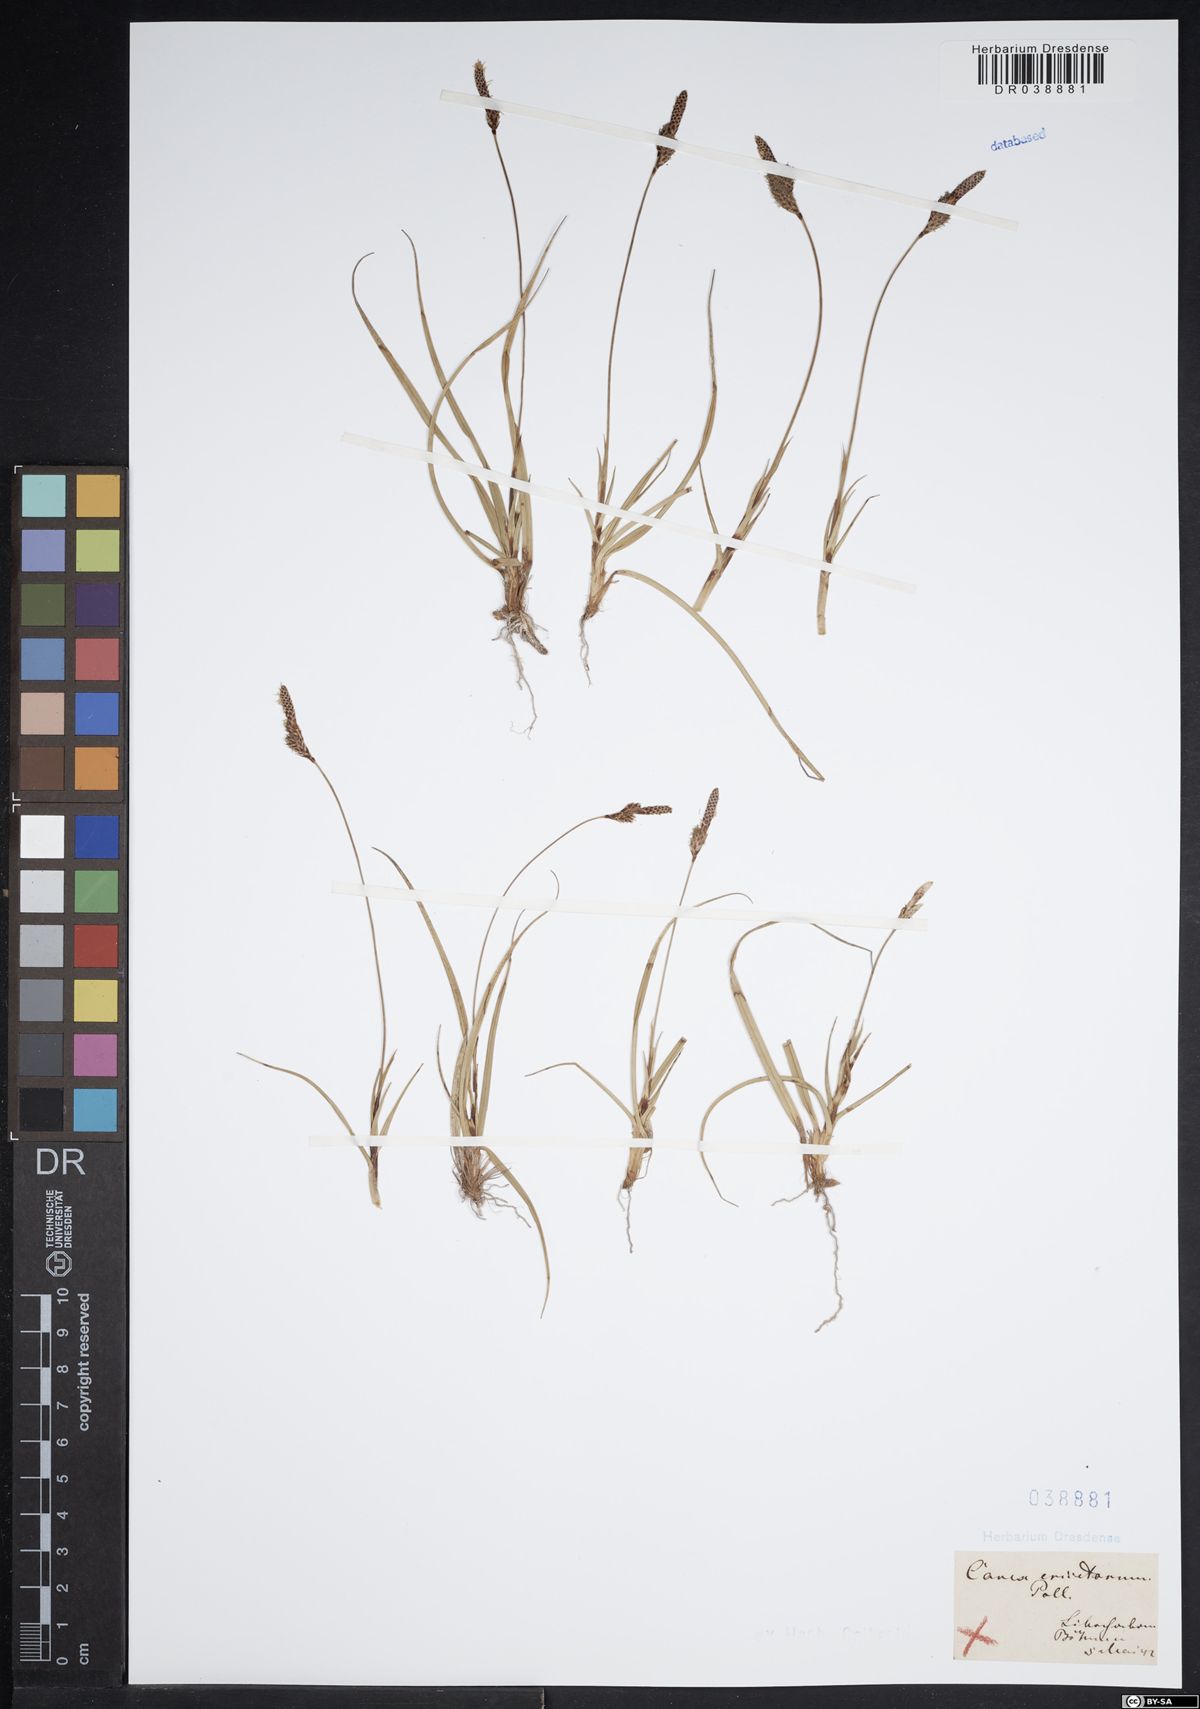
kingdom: Plantae
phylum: Tracheophyta
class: Liliopsida
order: Poales
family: Cyperaceae
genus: Carex
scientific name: Carex ericetorum
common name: Rare spring-sedge
